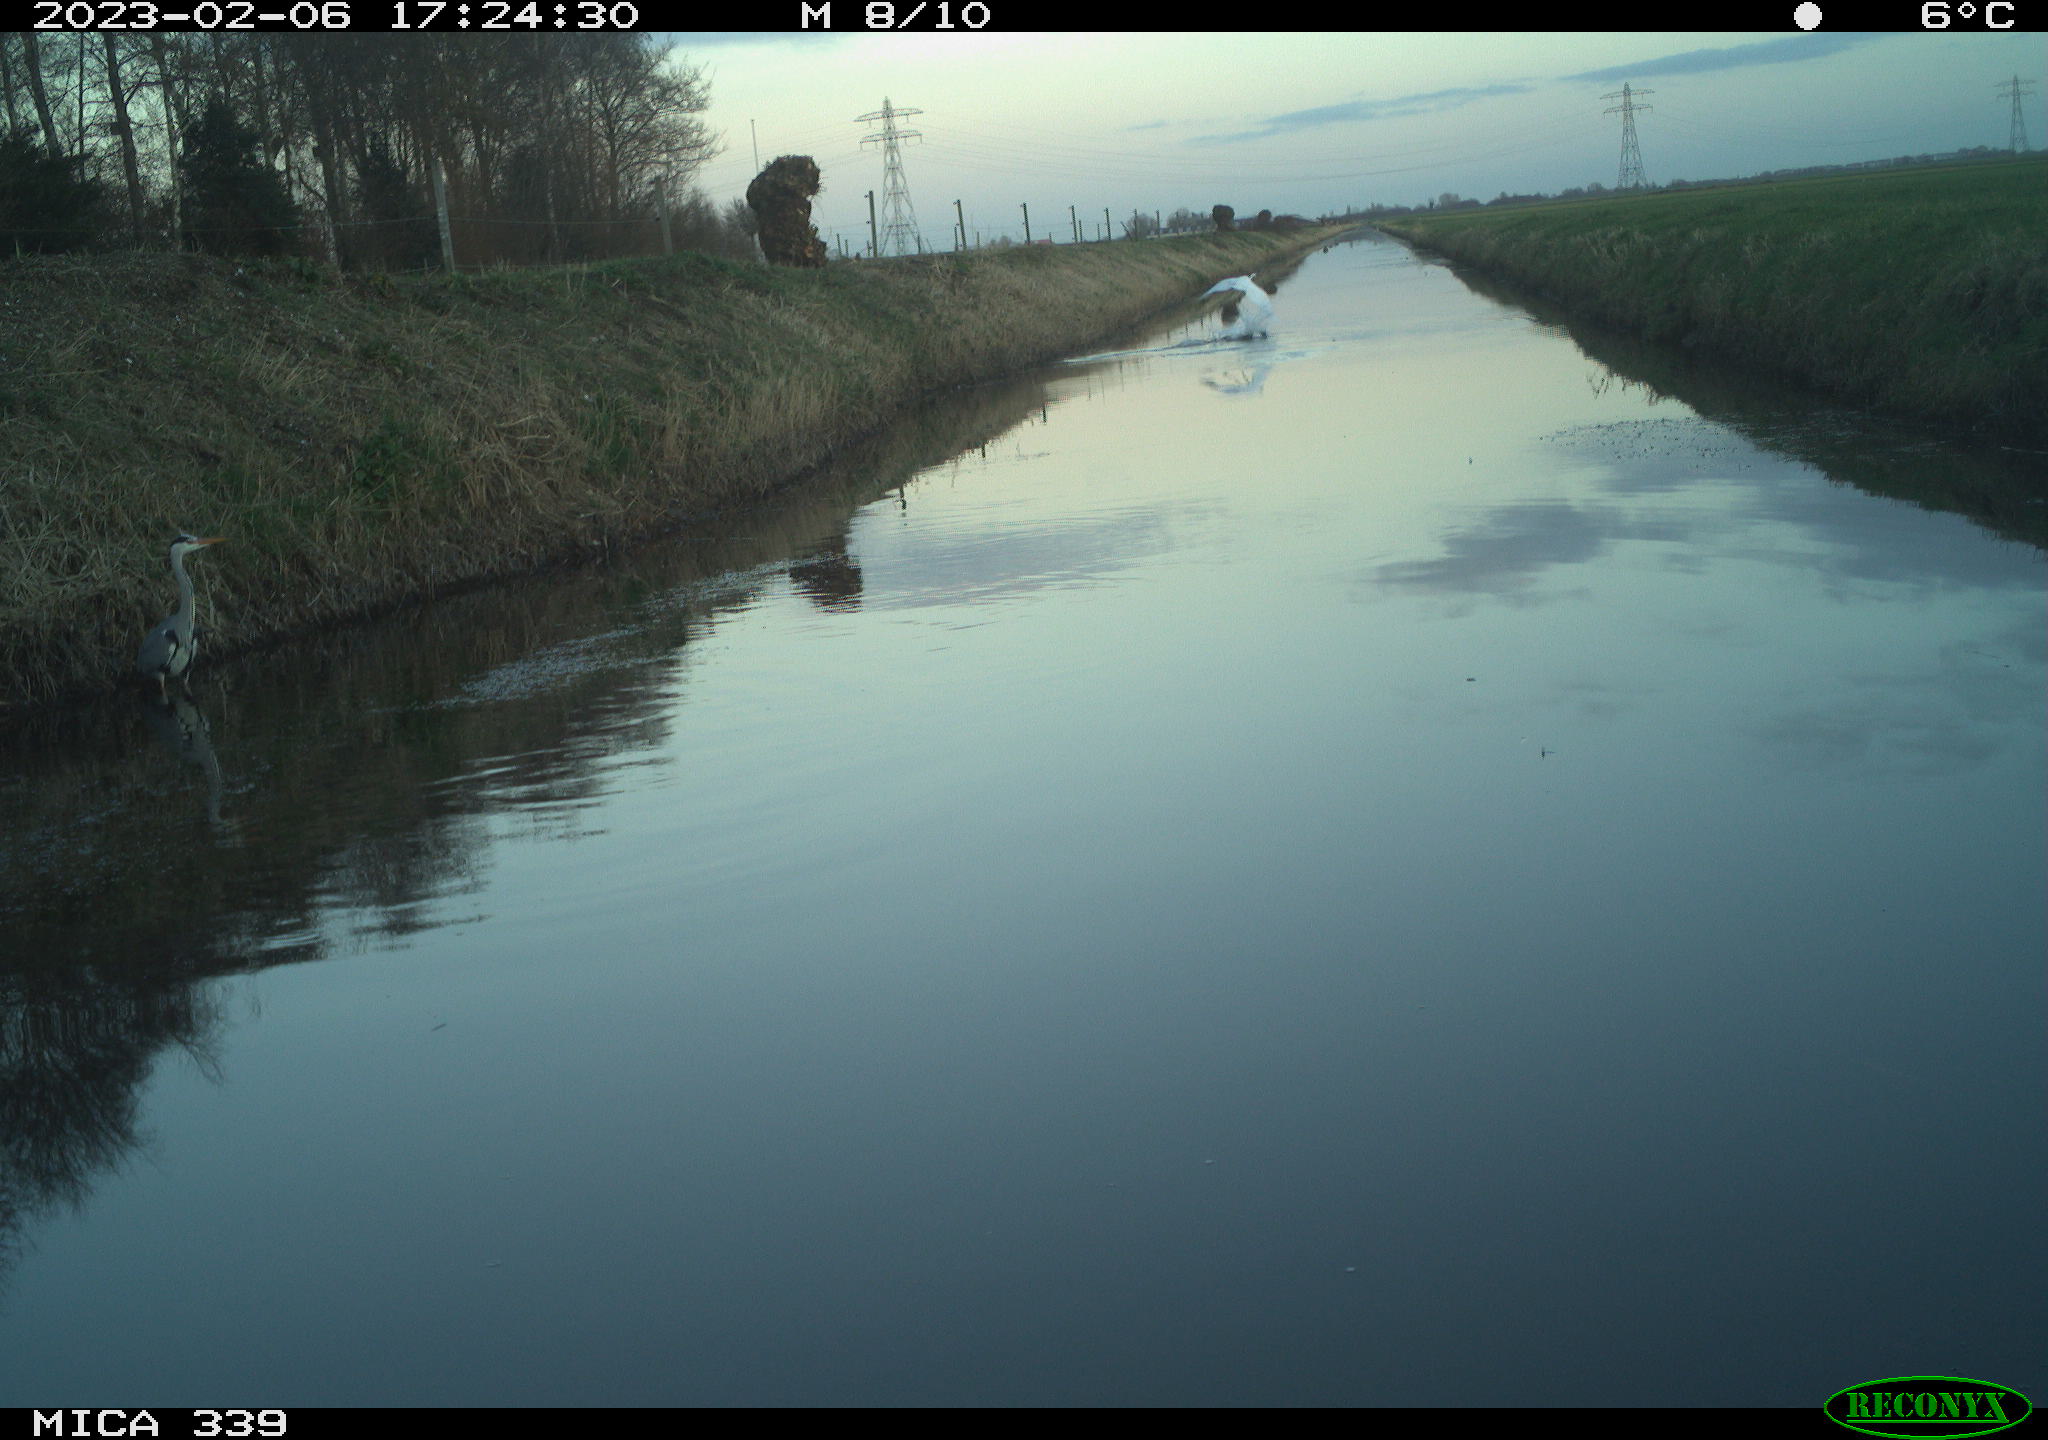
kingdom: Animalia
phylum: Chordata
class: Aves
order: Pelecaniformes
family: Ardeidae
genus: Ardea
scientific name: Ardea alba
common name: Great egret
